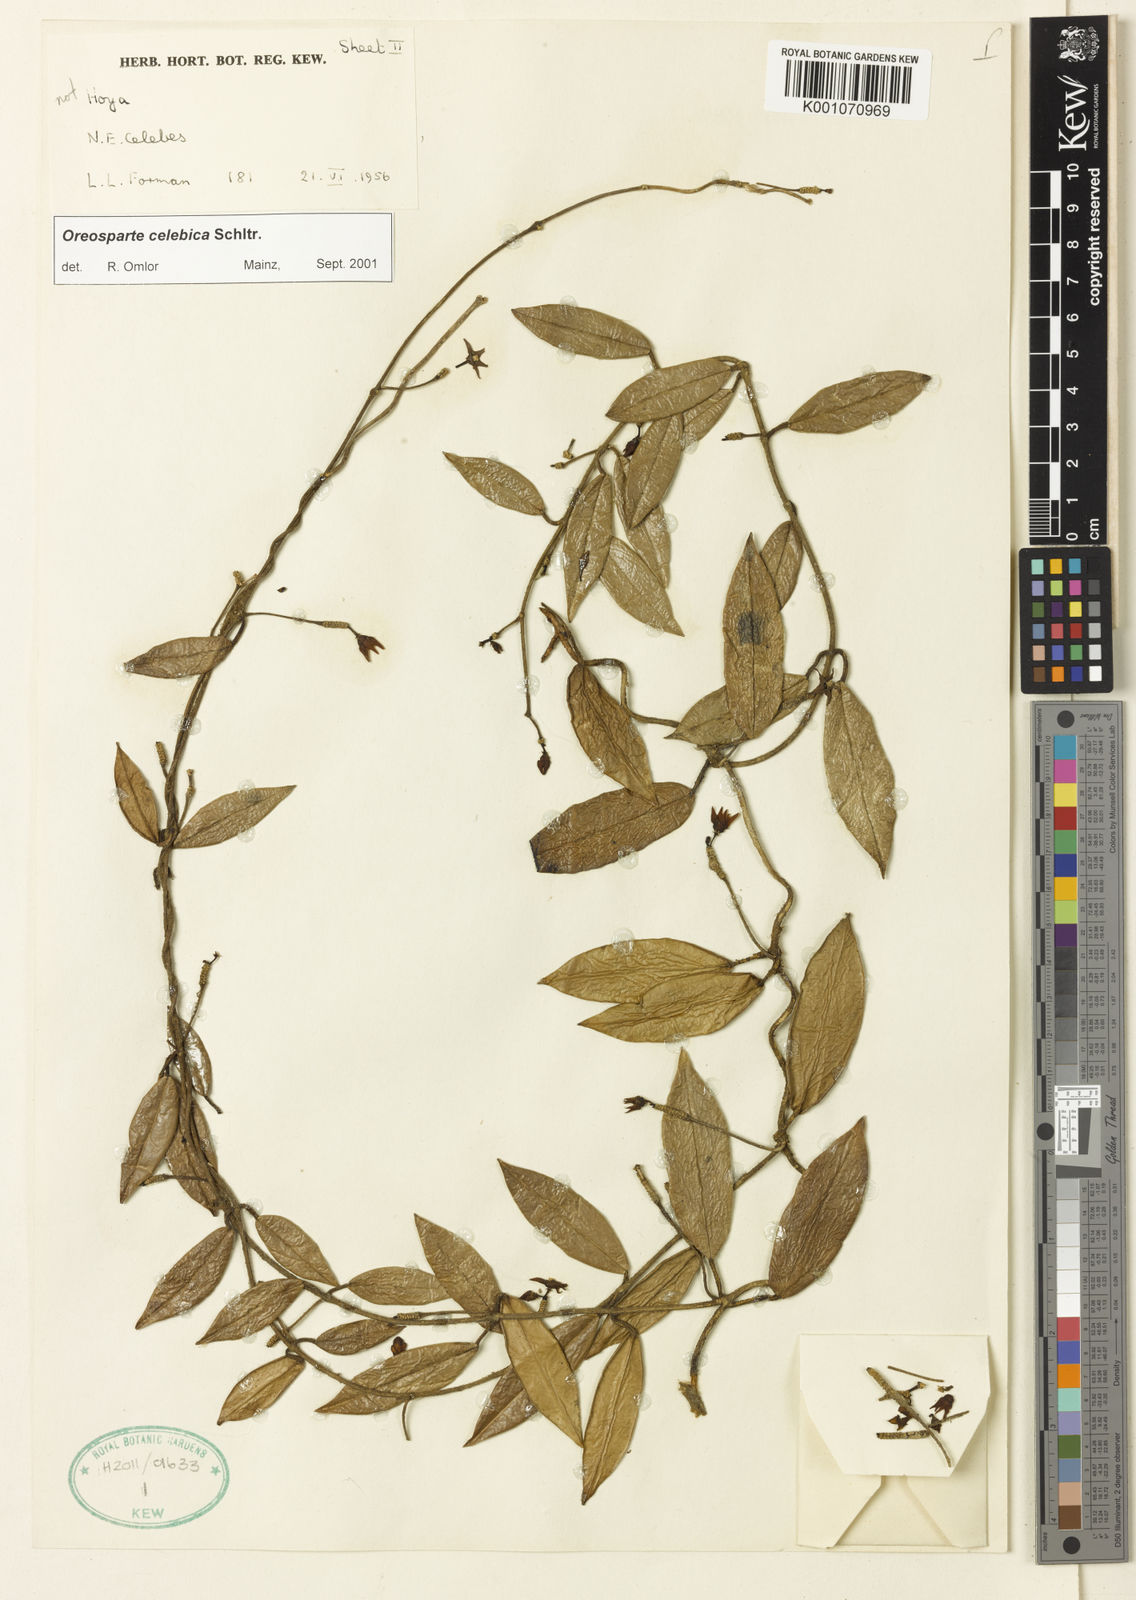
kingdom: Plantae
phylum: Tracheophyta
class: Magnoliopsida
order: Gentianales
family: Apocynaceae
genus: Oreosparte
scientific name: Oreosparte celebica
